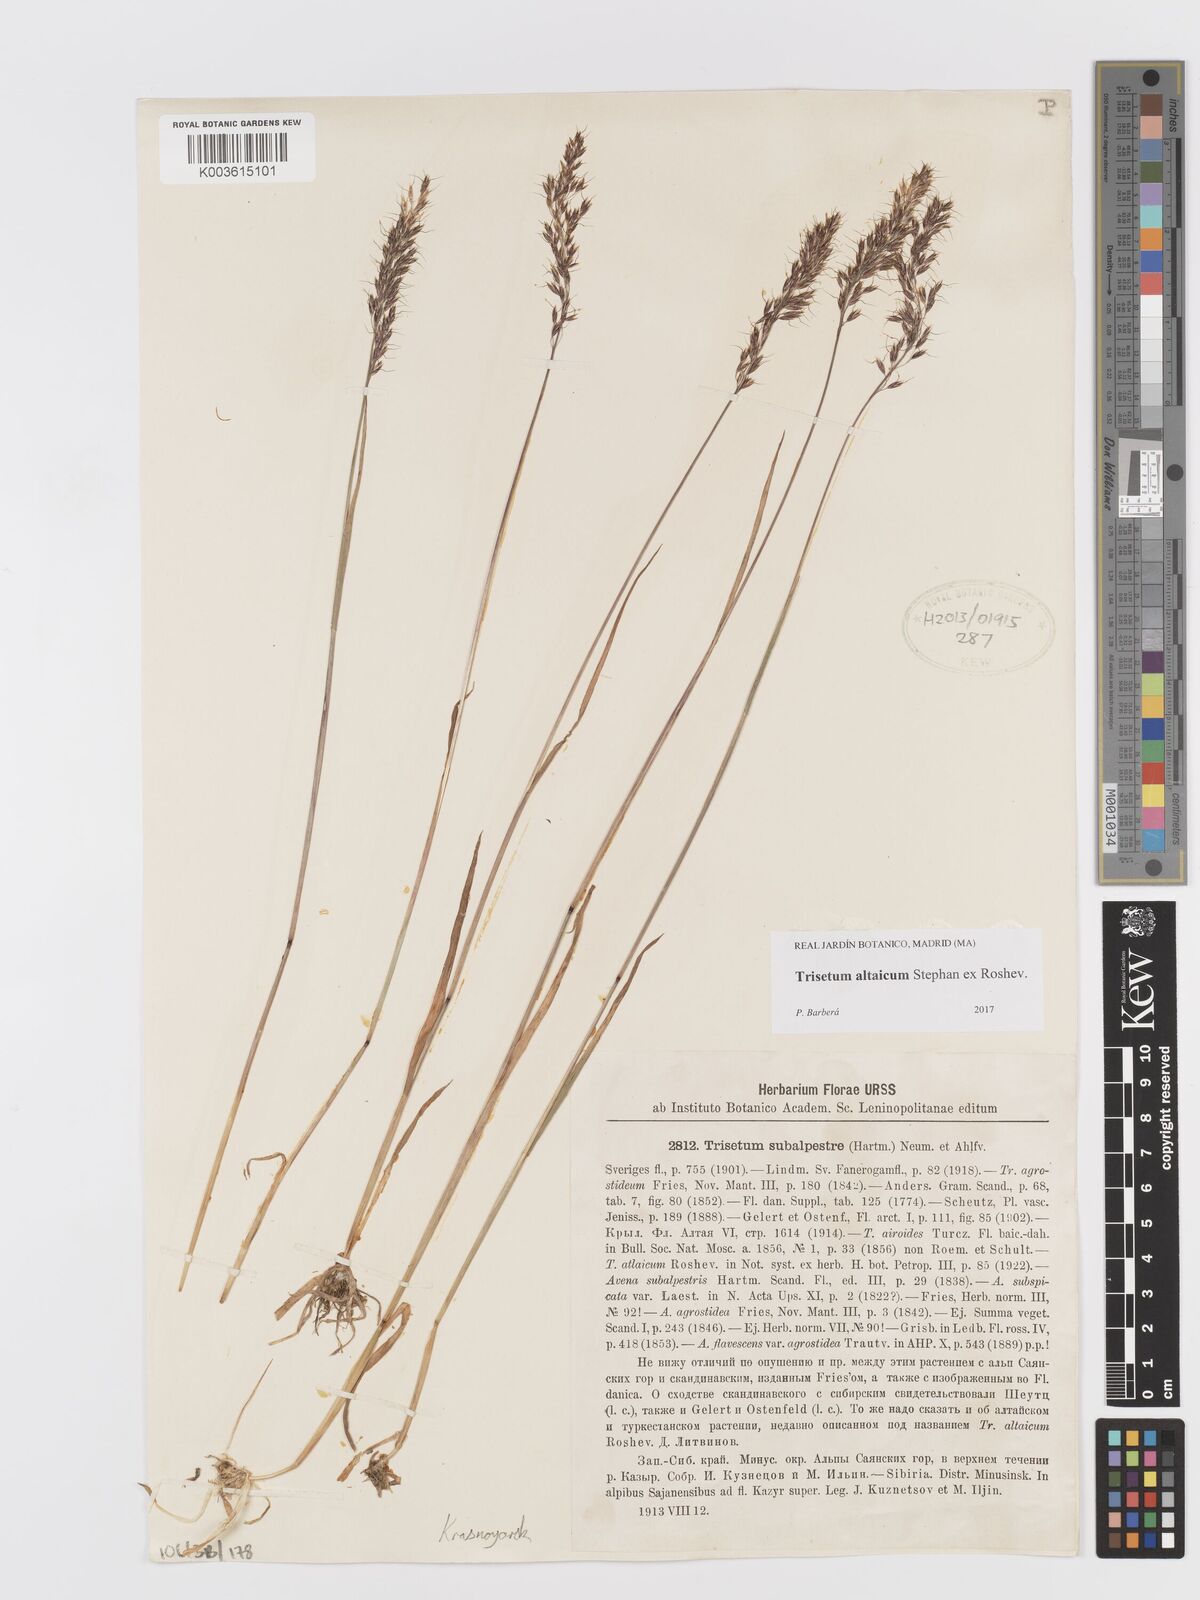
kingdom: Plantae
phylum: Tracheophyta
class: Liliopsida
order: Poales
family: Poaceae
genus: Trisetum
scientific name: Trisetum altaicum
